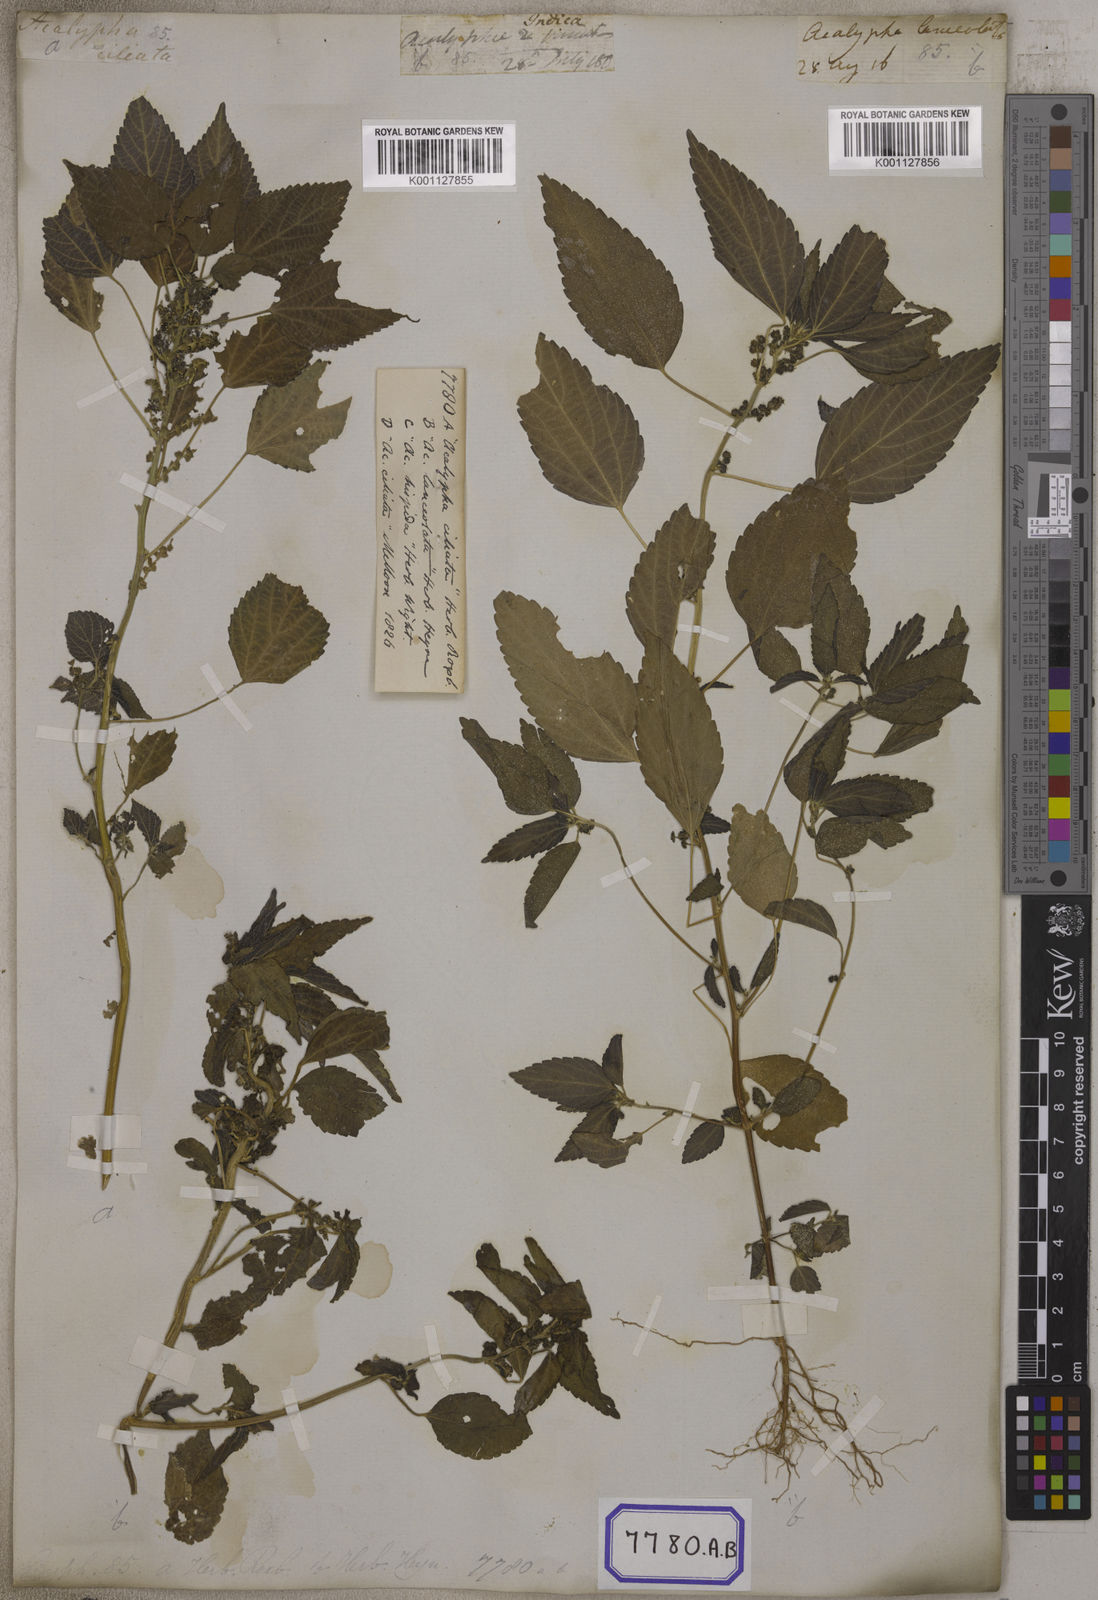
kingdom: Plantae
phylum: Tracheophyta
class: Magnoliopsida
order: Malpighiales
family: Euphorbiaceae
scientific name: Euphorbiaceae
